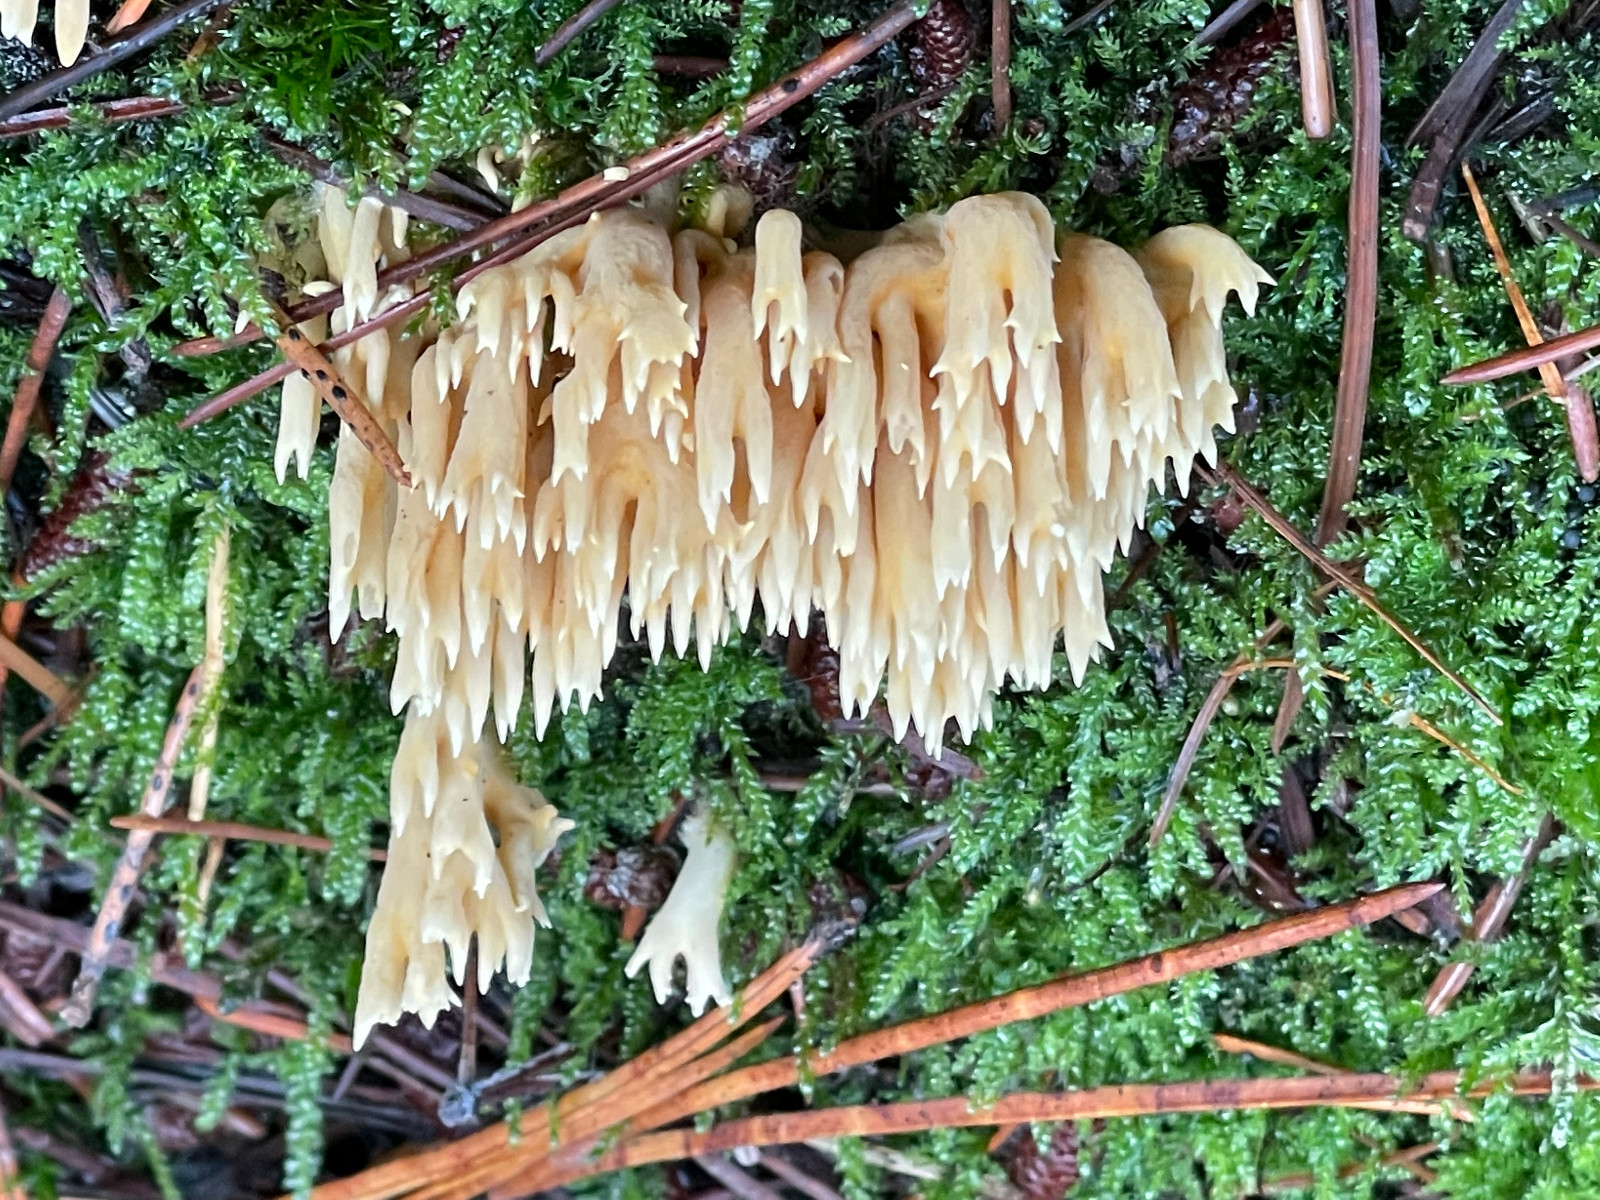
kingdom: Fungi
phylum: Basidiomycota
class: Agaricomycetes
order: Gomphales
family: Gomphaceae
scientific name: Gomphaceae
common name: køllekantarelfamilien
